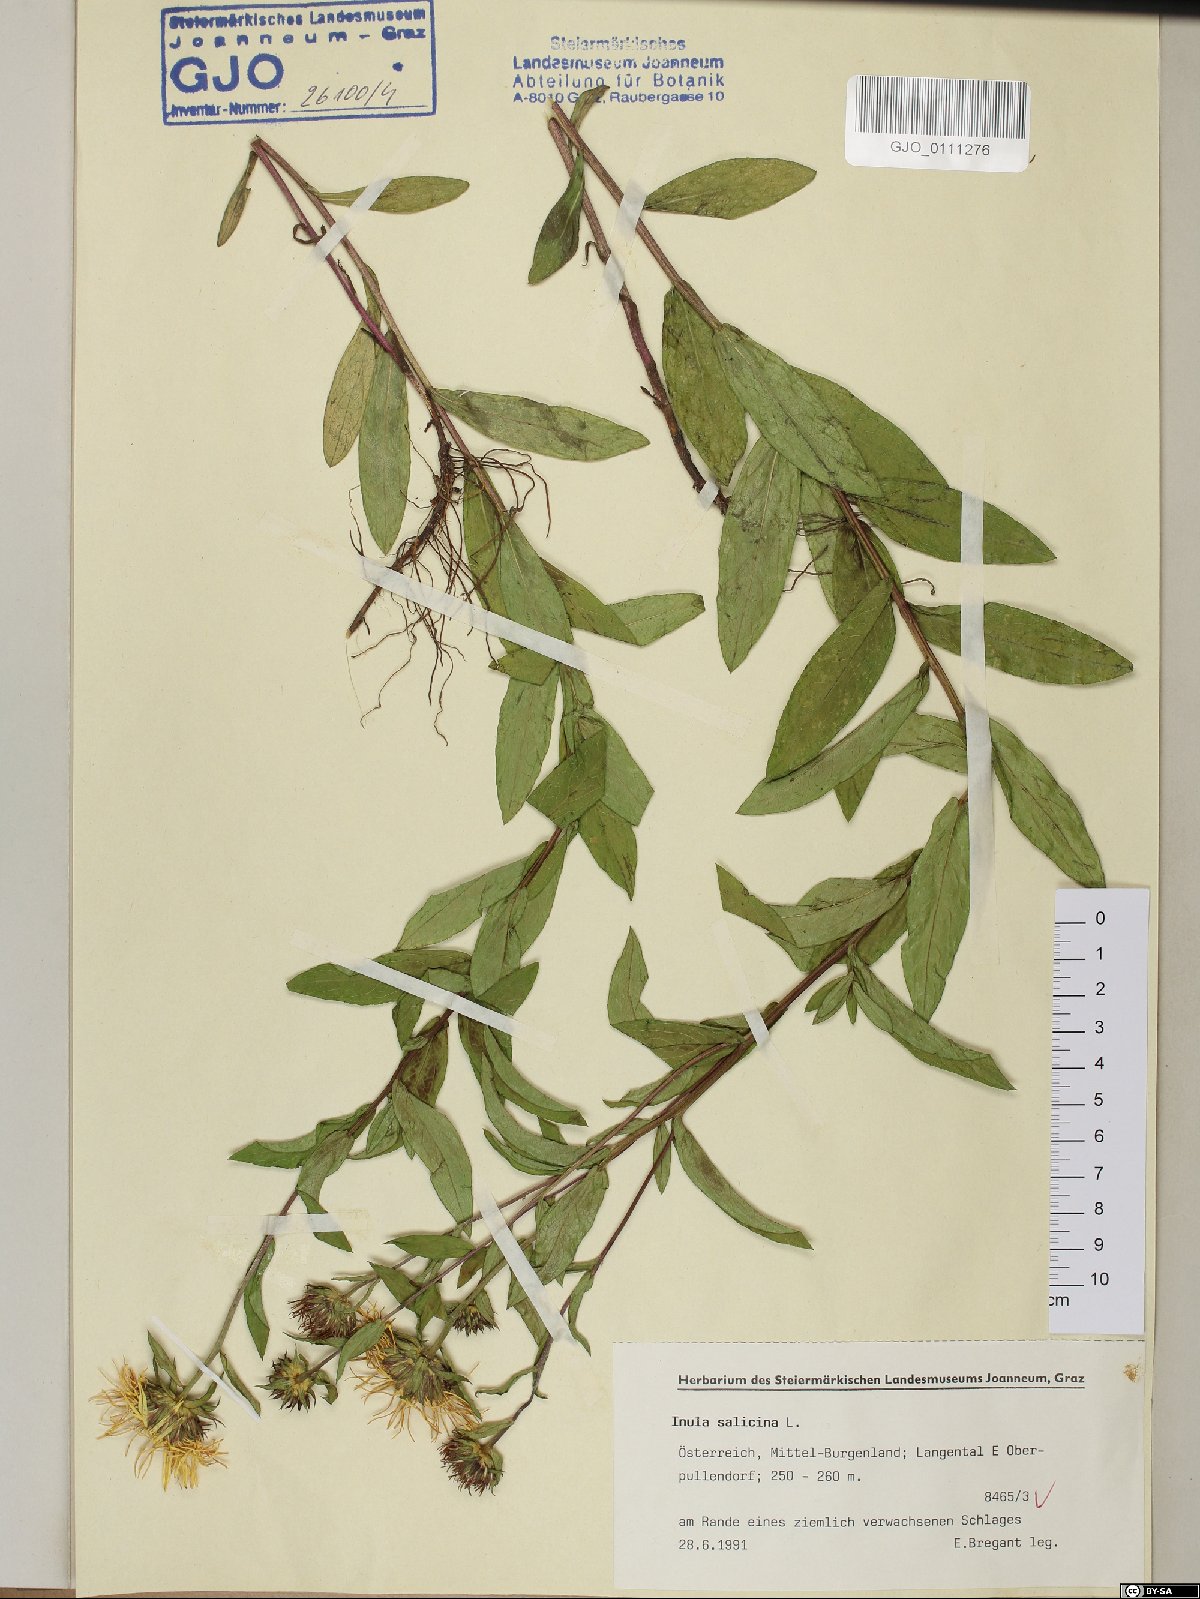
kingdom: Plantae
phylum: Tracheophyta
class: Magnoliopsida
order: Asterales
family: Asteraceae
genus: Pentanema
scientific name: Pentanema salicinum
